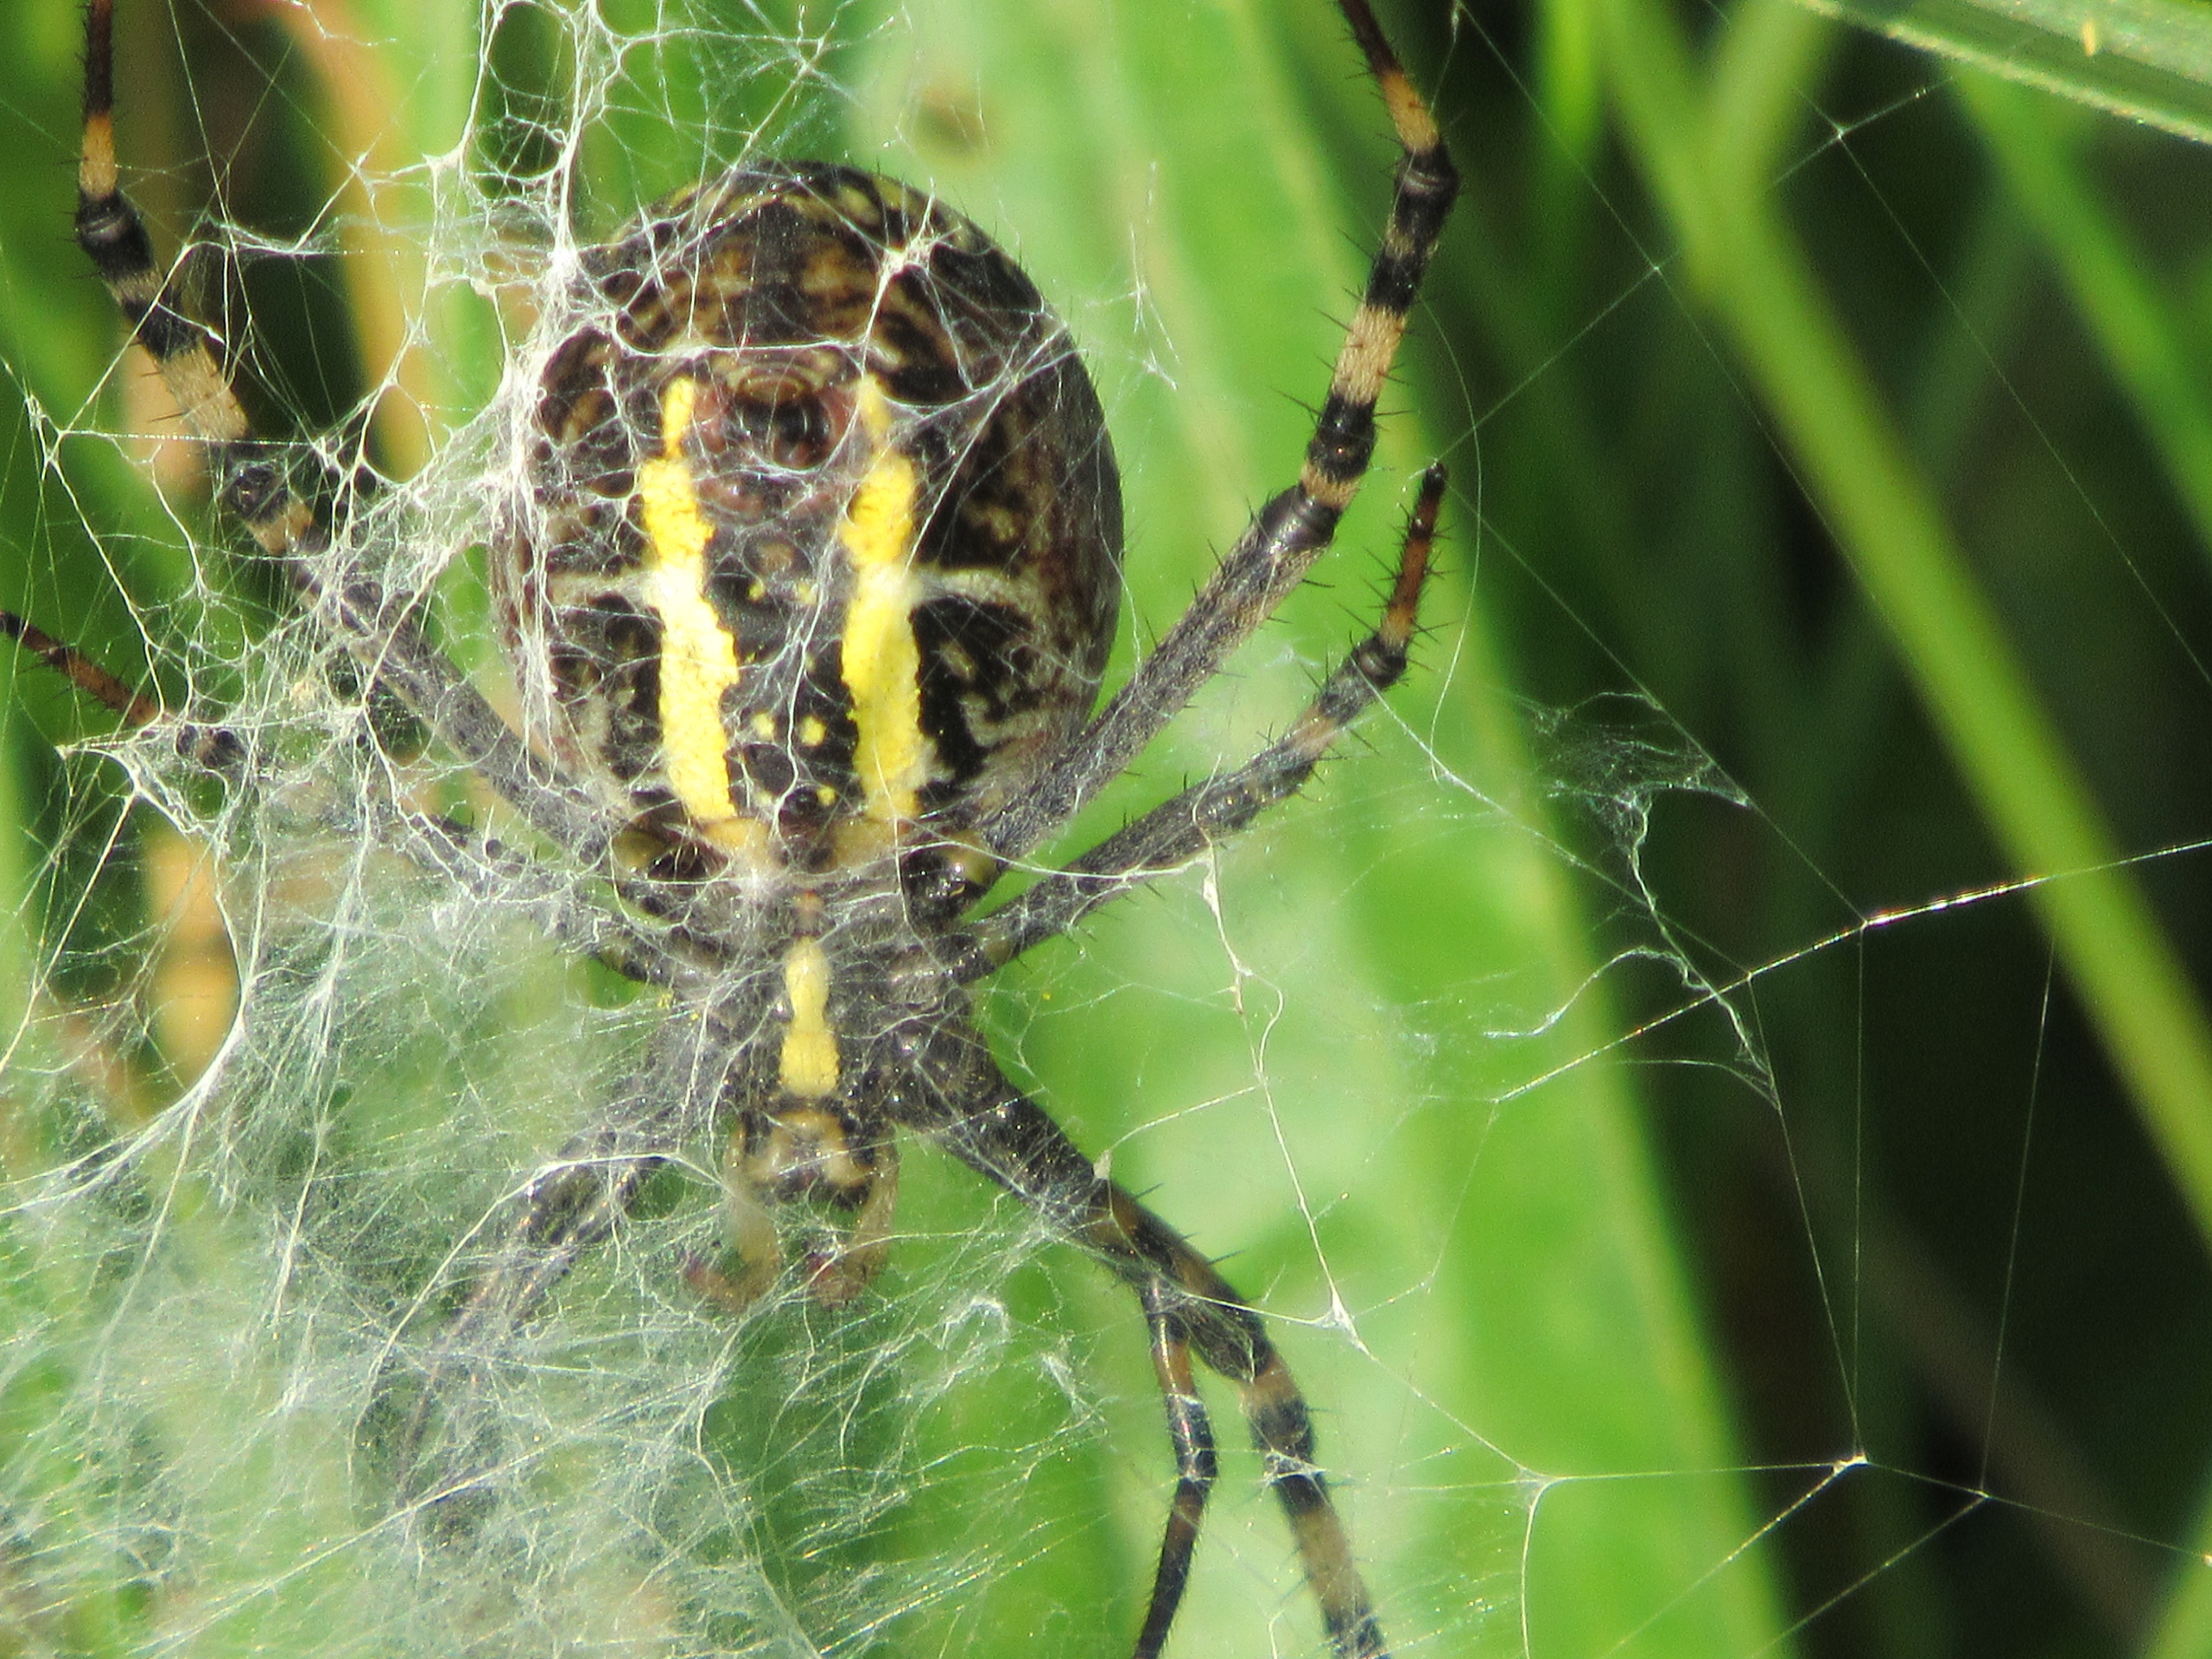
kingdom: Animalia
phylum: Arthropoda
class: Arachnida
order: Araneae
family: Araneidae
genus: Argiope
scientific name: Argiope bruennichi
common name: Hvepseedderkop
